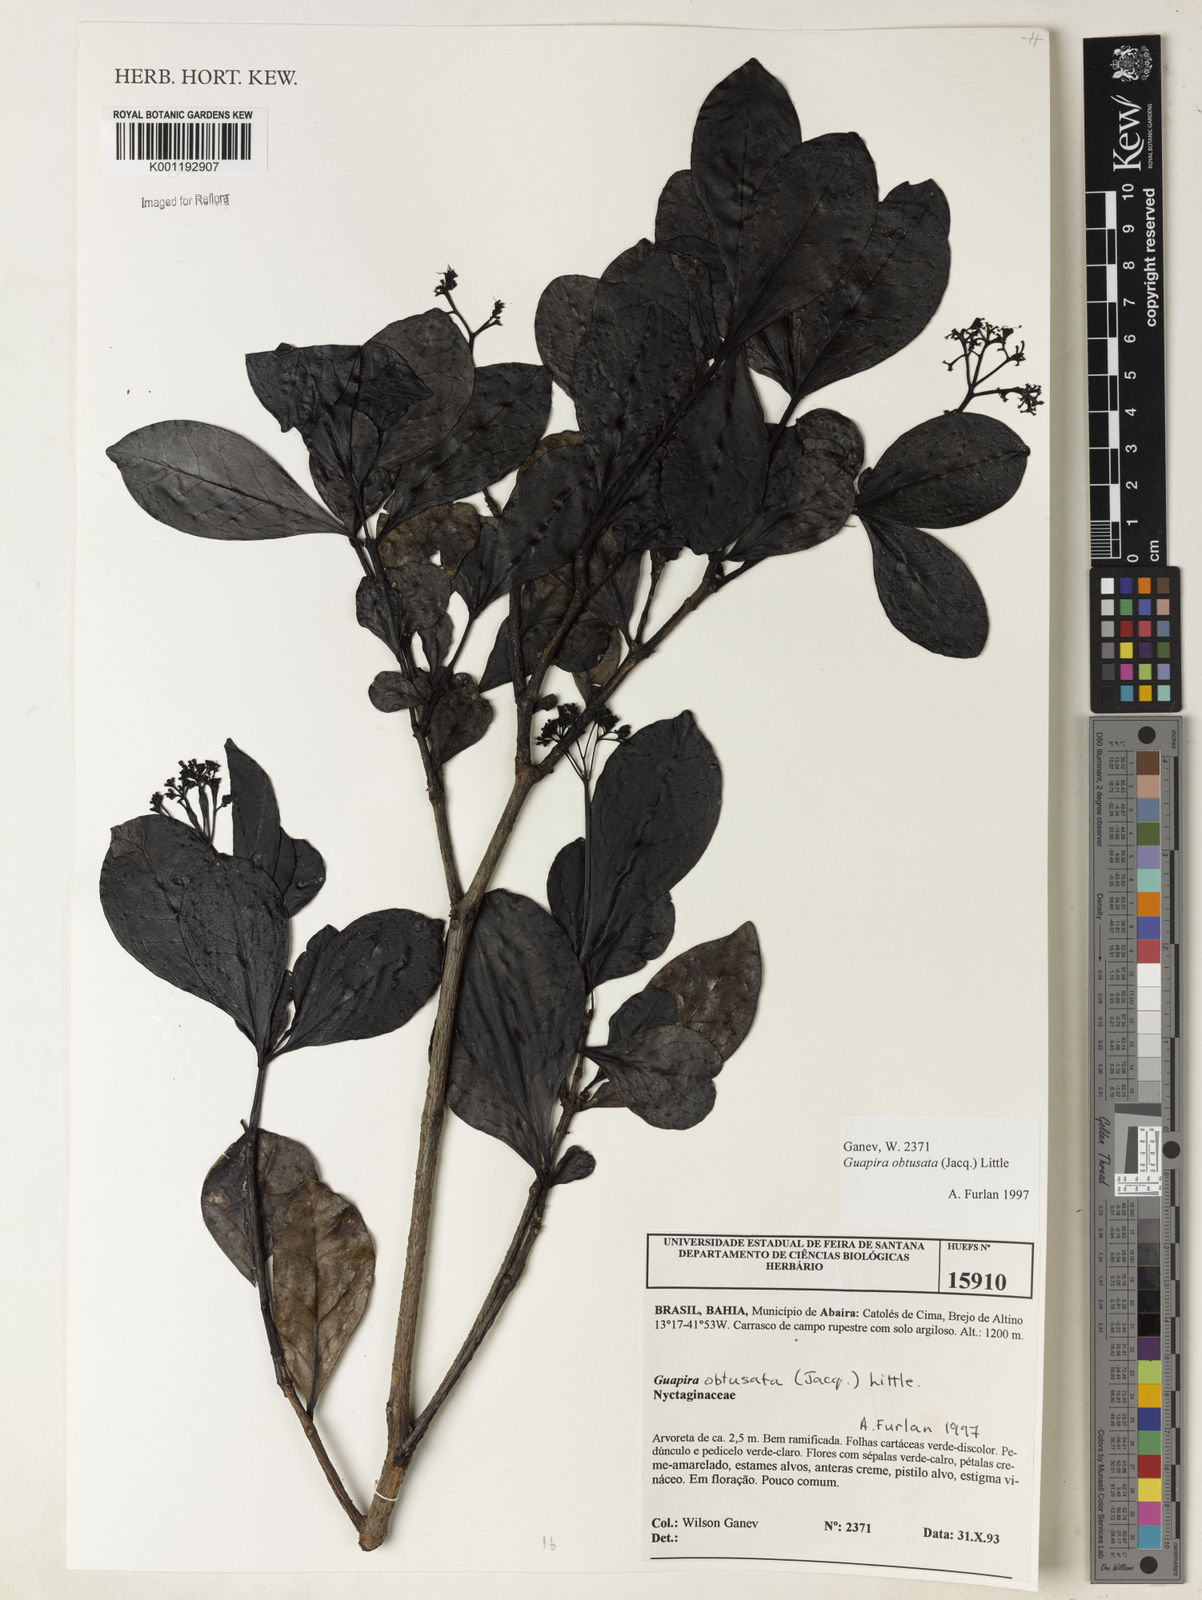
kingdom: Plantae
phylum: Tracheophyta
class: Magnoliopsida
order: Caryophyllales
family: Nyctaginaceae
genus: Guapira
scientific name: Guapira obtusata
